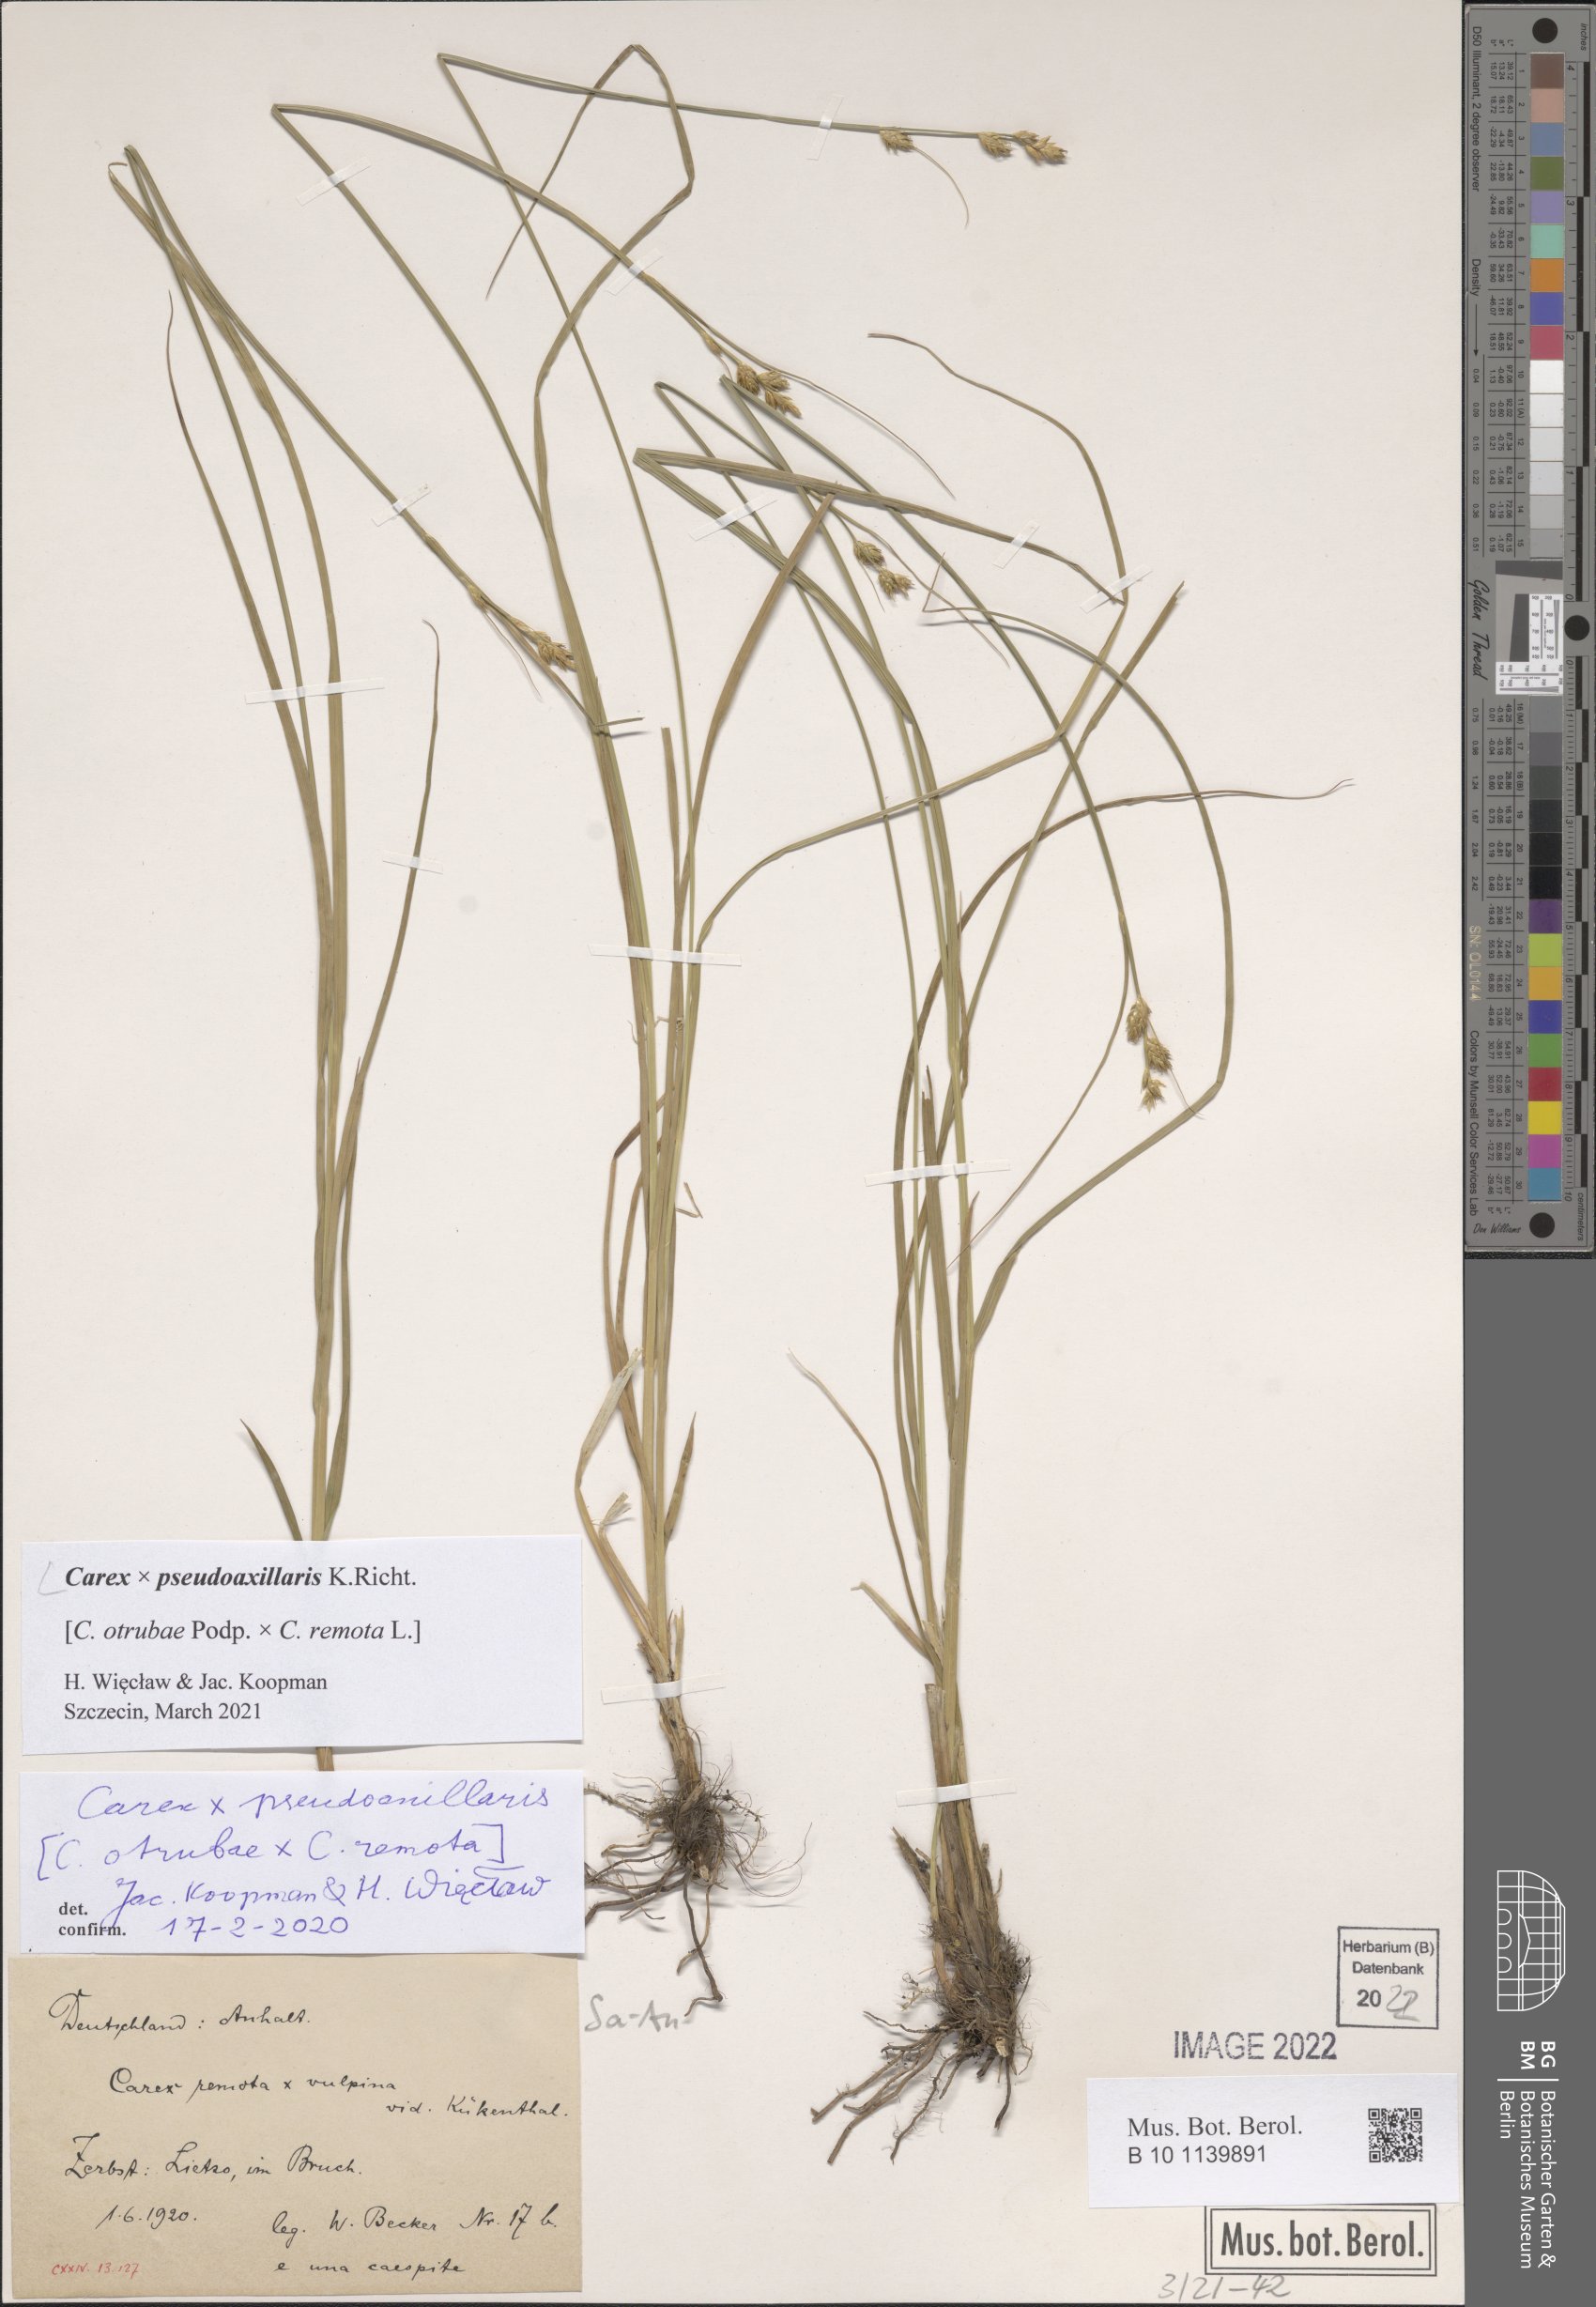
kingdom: Plantae
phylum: Tracheophyta
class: Liliopsida
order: Poales
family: Cyperaceae
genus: Carex
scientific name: Carex pseudoaxillaris
